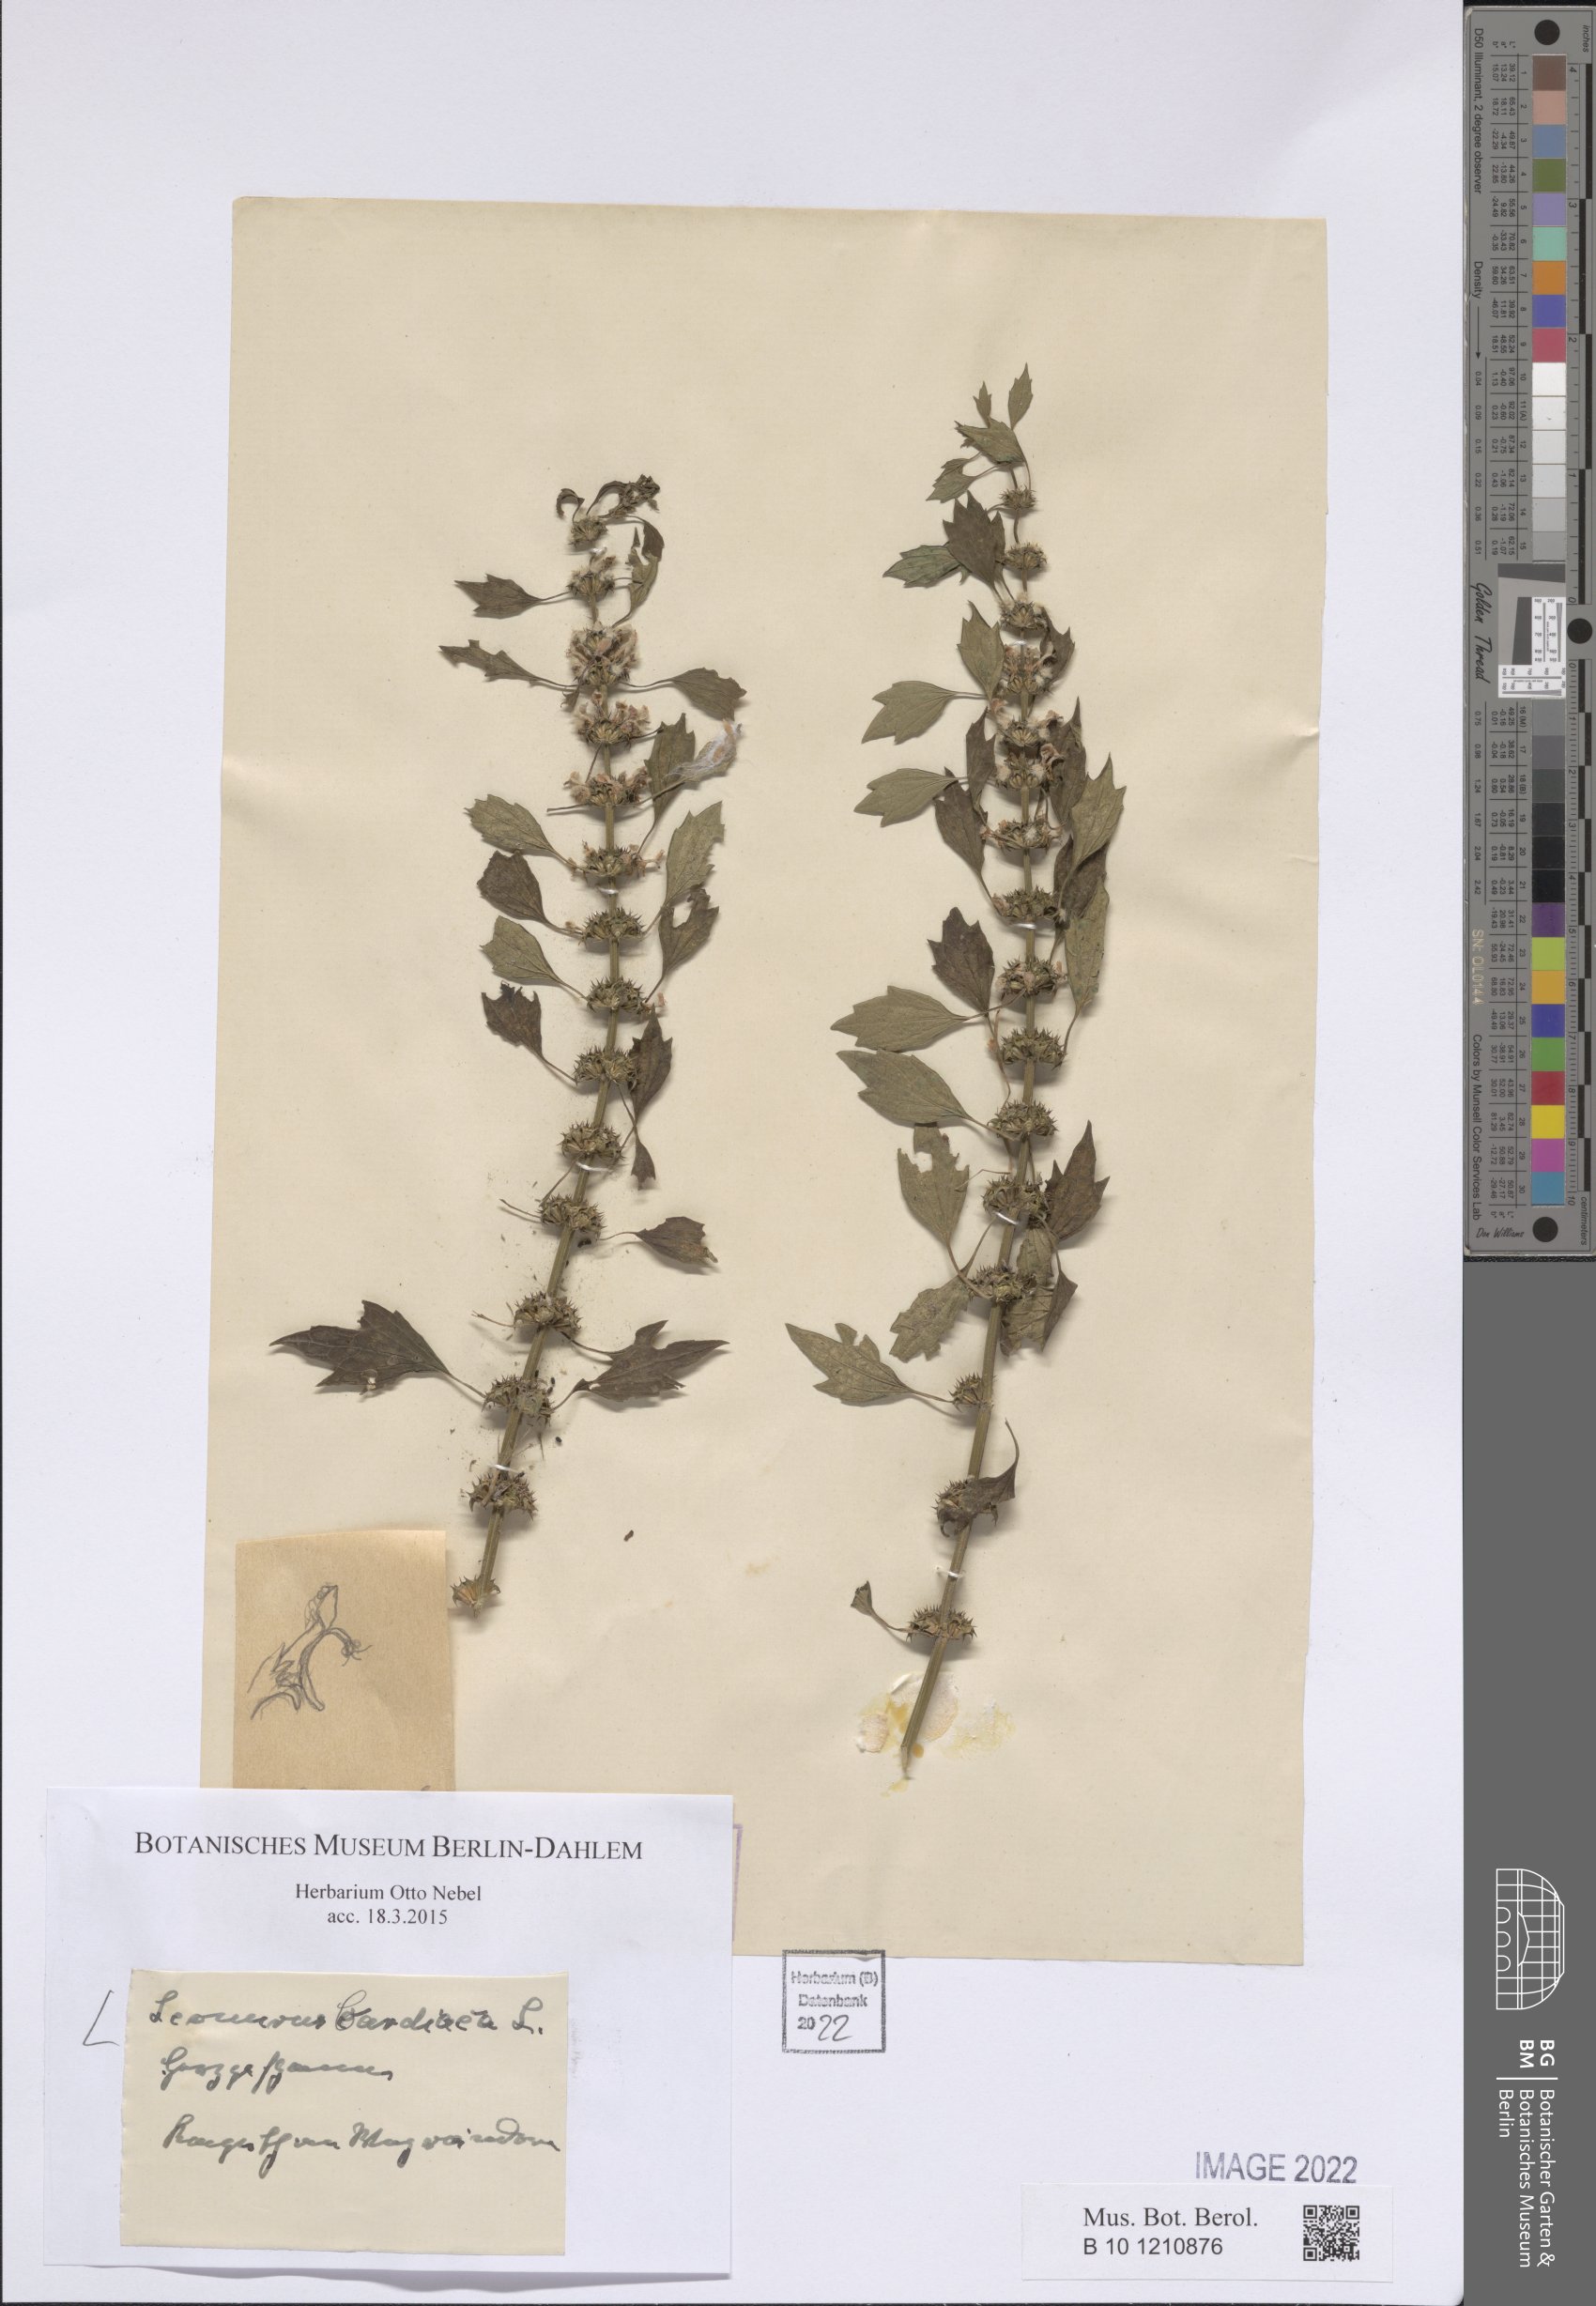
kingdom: Plantae
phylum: Tracheophyta
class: Magnoliopsida
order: Lamiales
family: Lamiaceae
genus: Leonurus
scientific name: Leonurus cardiaca
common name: Motherwort
